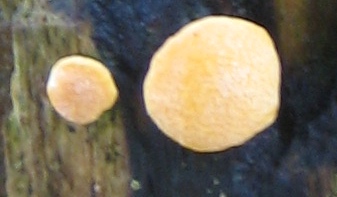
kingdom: Fungi
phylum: Ascomycota
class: Sordariomycetes
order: Hypocreales
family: Hypocreaceae
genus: Trichoderma
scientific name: Trichoderma aureoviride
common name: æggegul kødkerne
